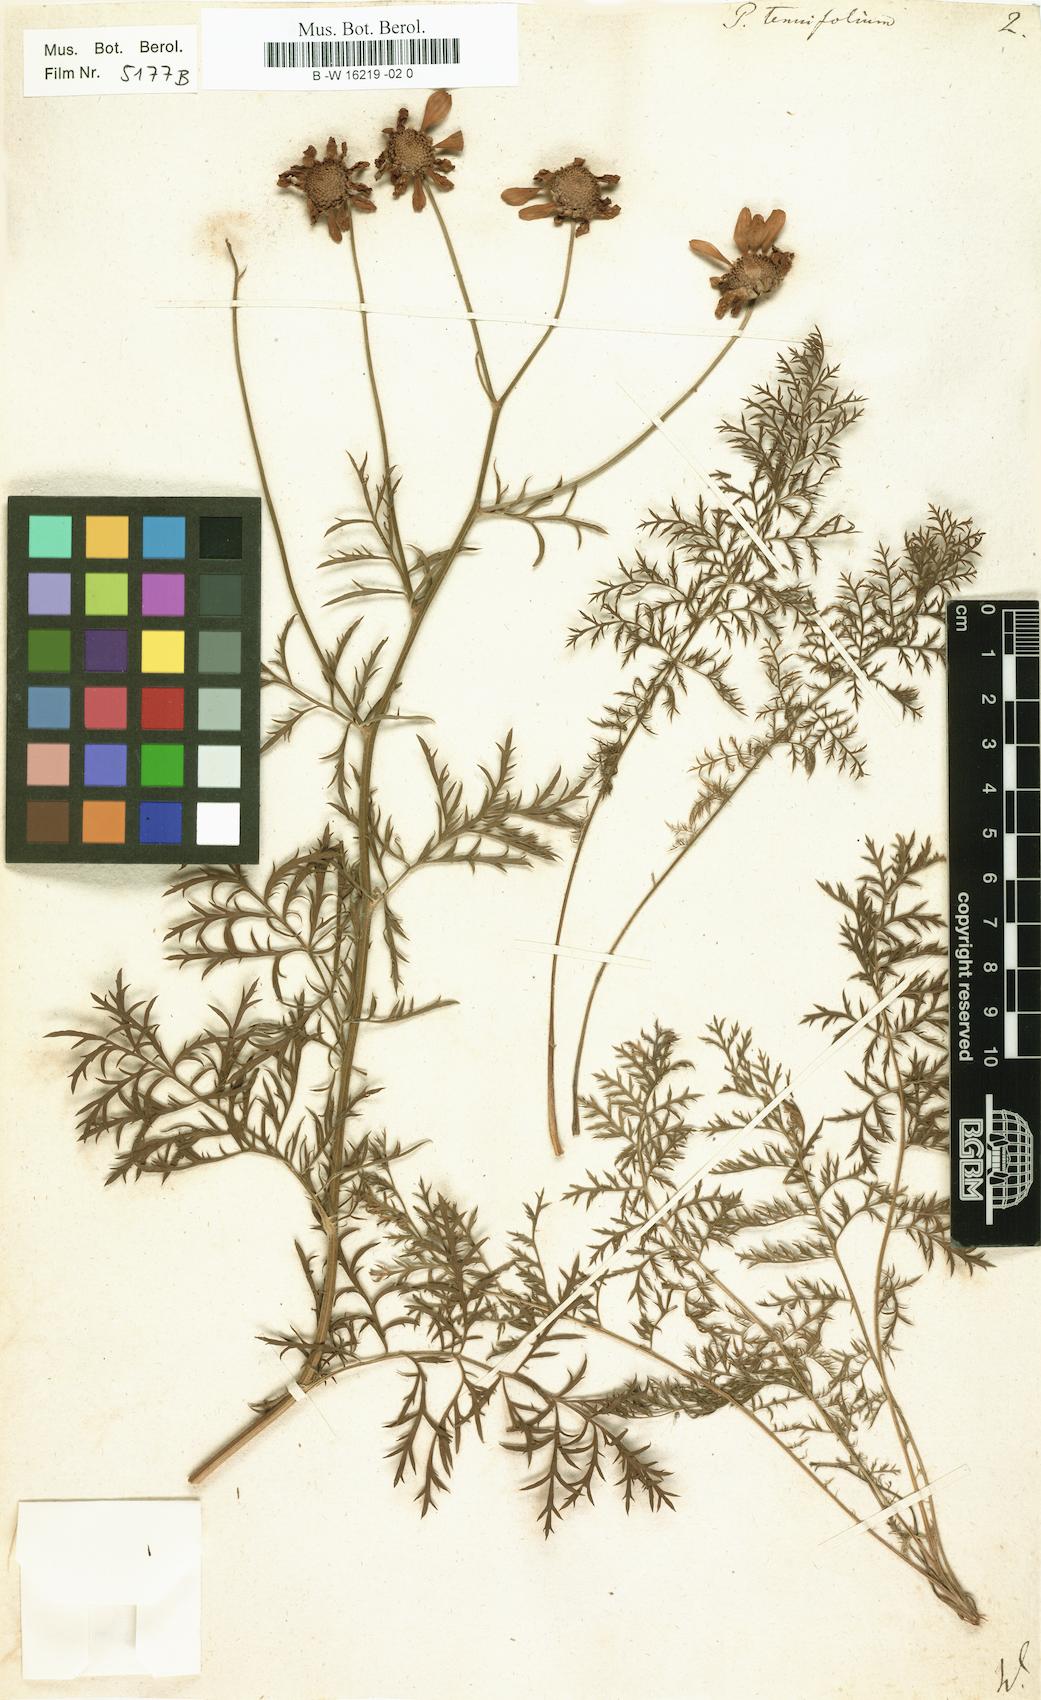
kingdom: Plantae
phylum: Tracheophyta
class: Magnoliopsida
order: Asterales
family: Asteraceae
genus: Tanacetum
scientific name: Tanacetum corymbosum
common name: Scentless feverfew
